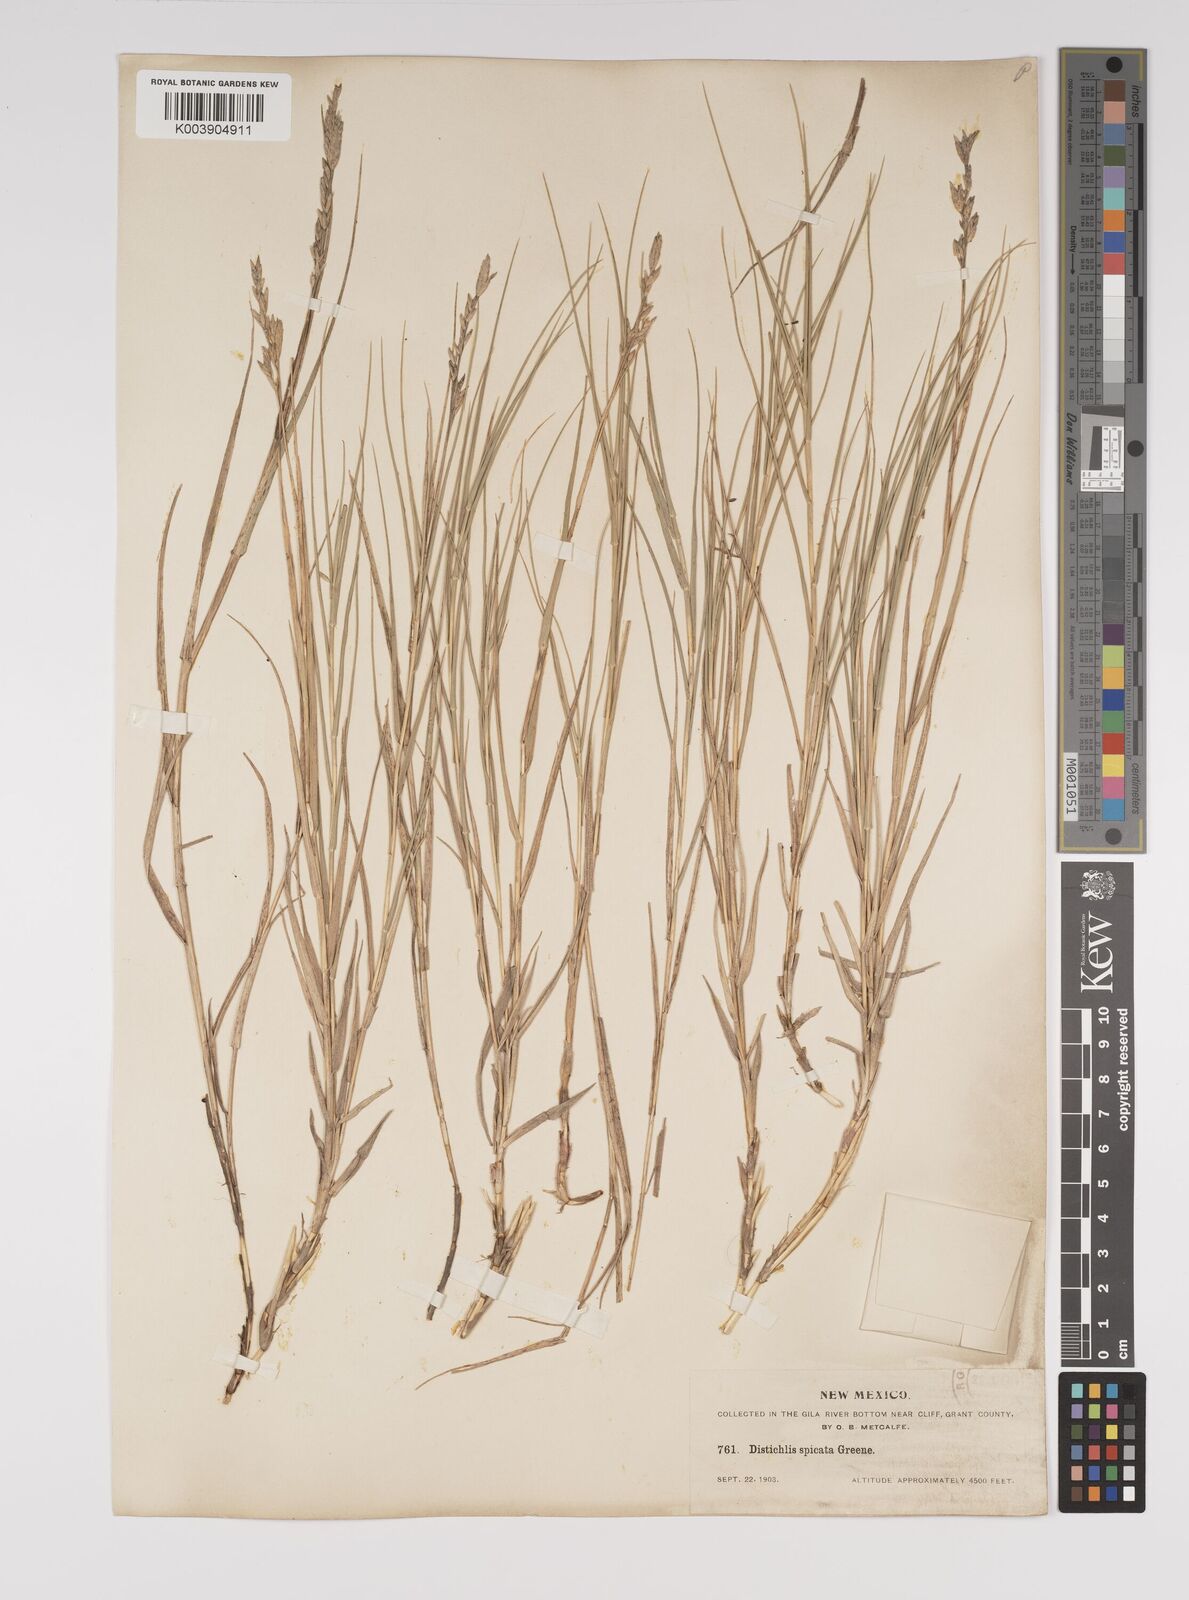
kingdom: Plantae
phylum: Tracheophyta
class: Liliopsida
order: Poales
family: Poaceae
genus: Distichlis
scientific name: Distichlis spicata
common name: Saltgrass
